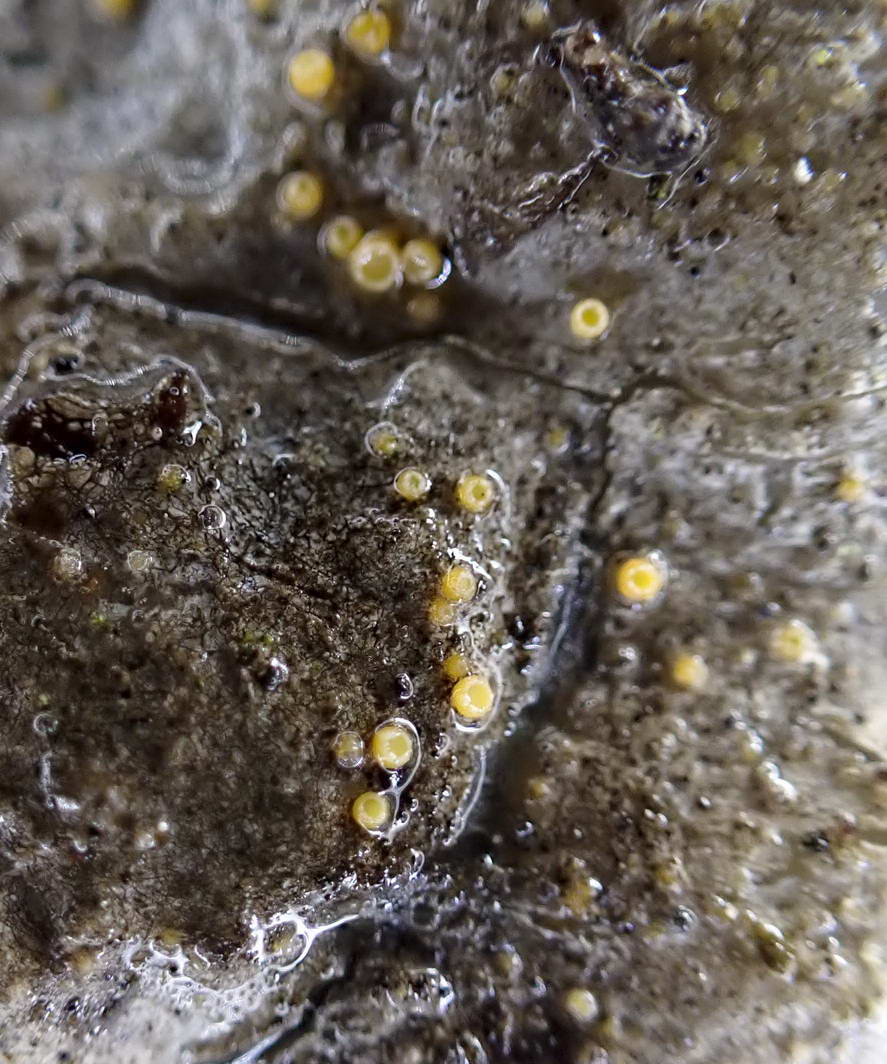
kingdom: Fungi
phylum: Ascomycota
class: Sareomycetes
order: Sareales
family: Sareaceae
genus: Sarea
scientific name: Sarea resinae
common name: orangegul harpiksskive
